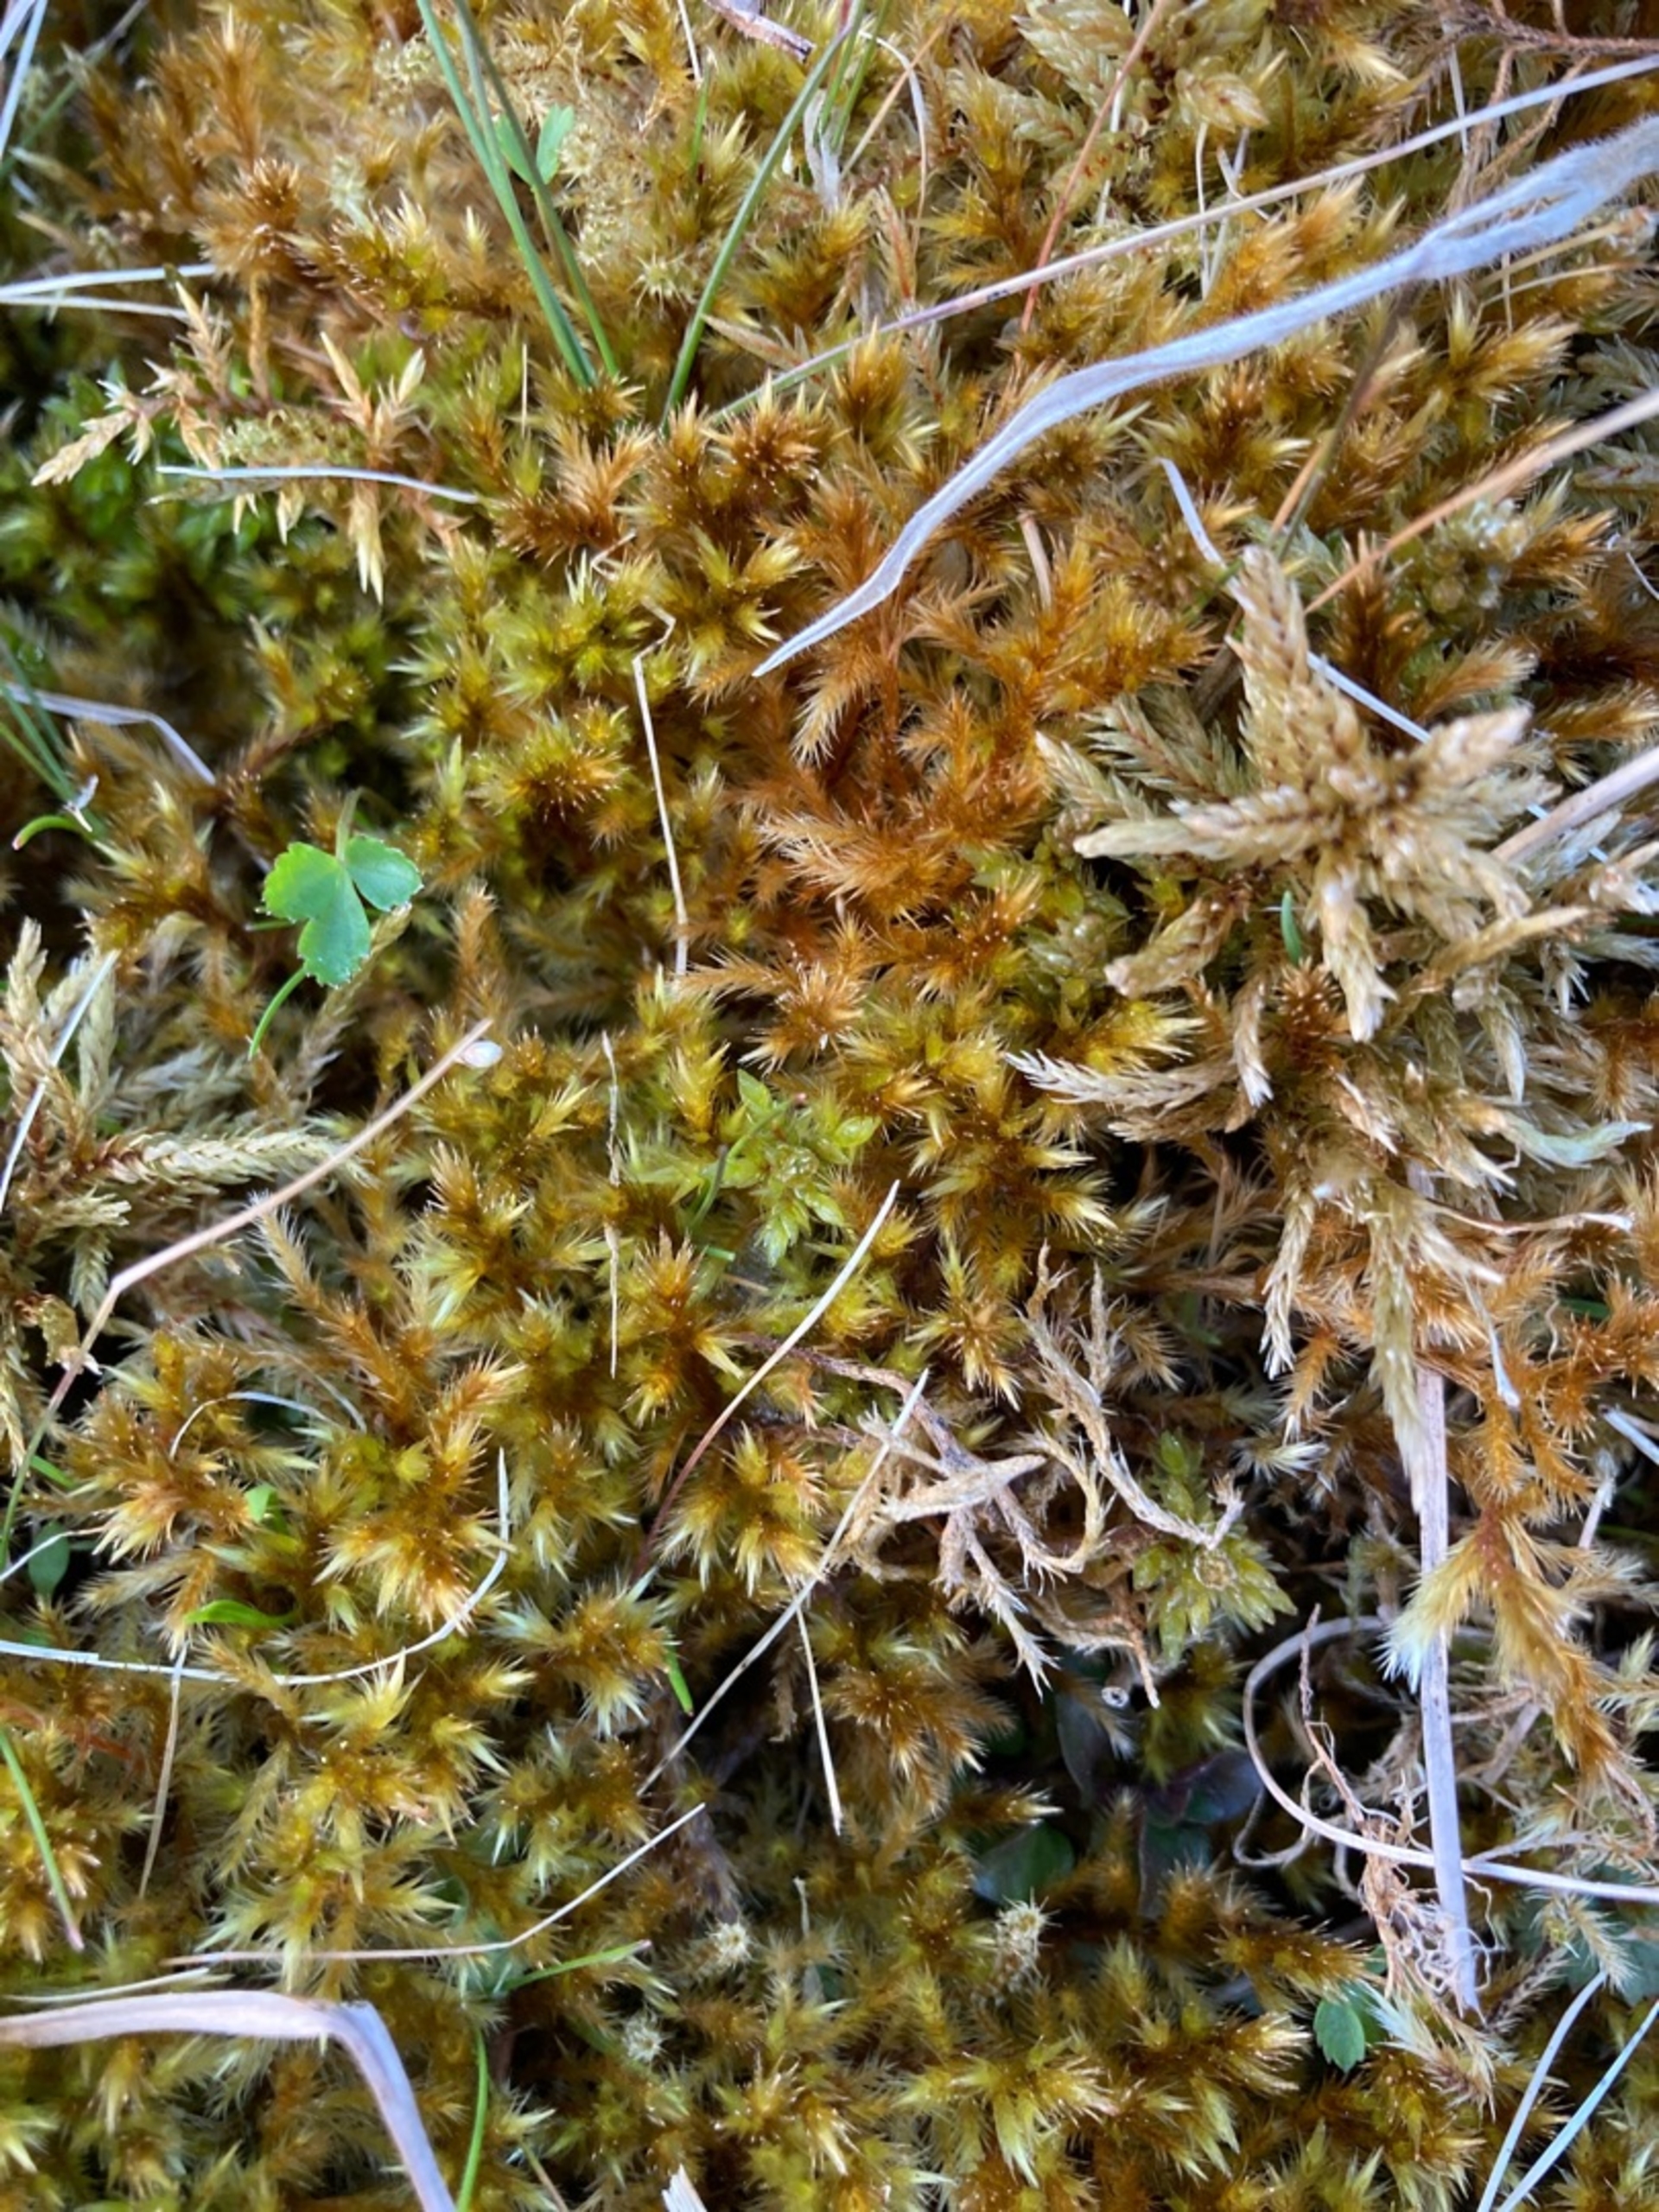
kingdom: Plantae
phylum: Bryophyta
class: Bryopsida
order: Hypnales
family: Amblystegiaceae
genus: Tomentypnum
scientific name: Tomentypnum nitens
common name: Glinsende kærmos
